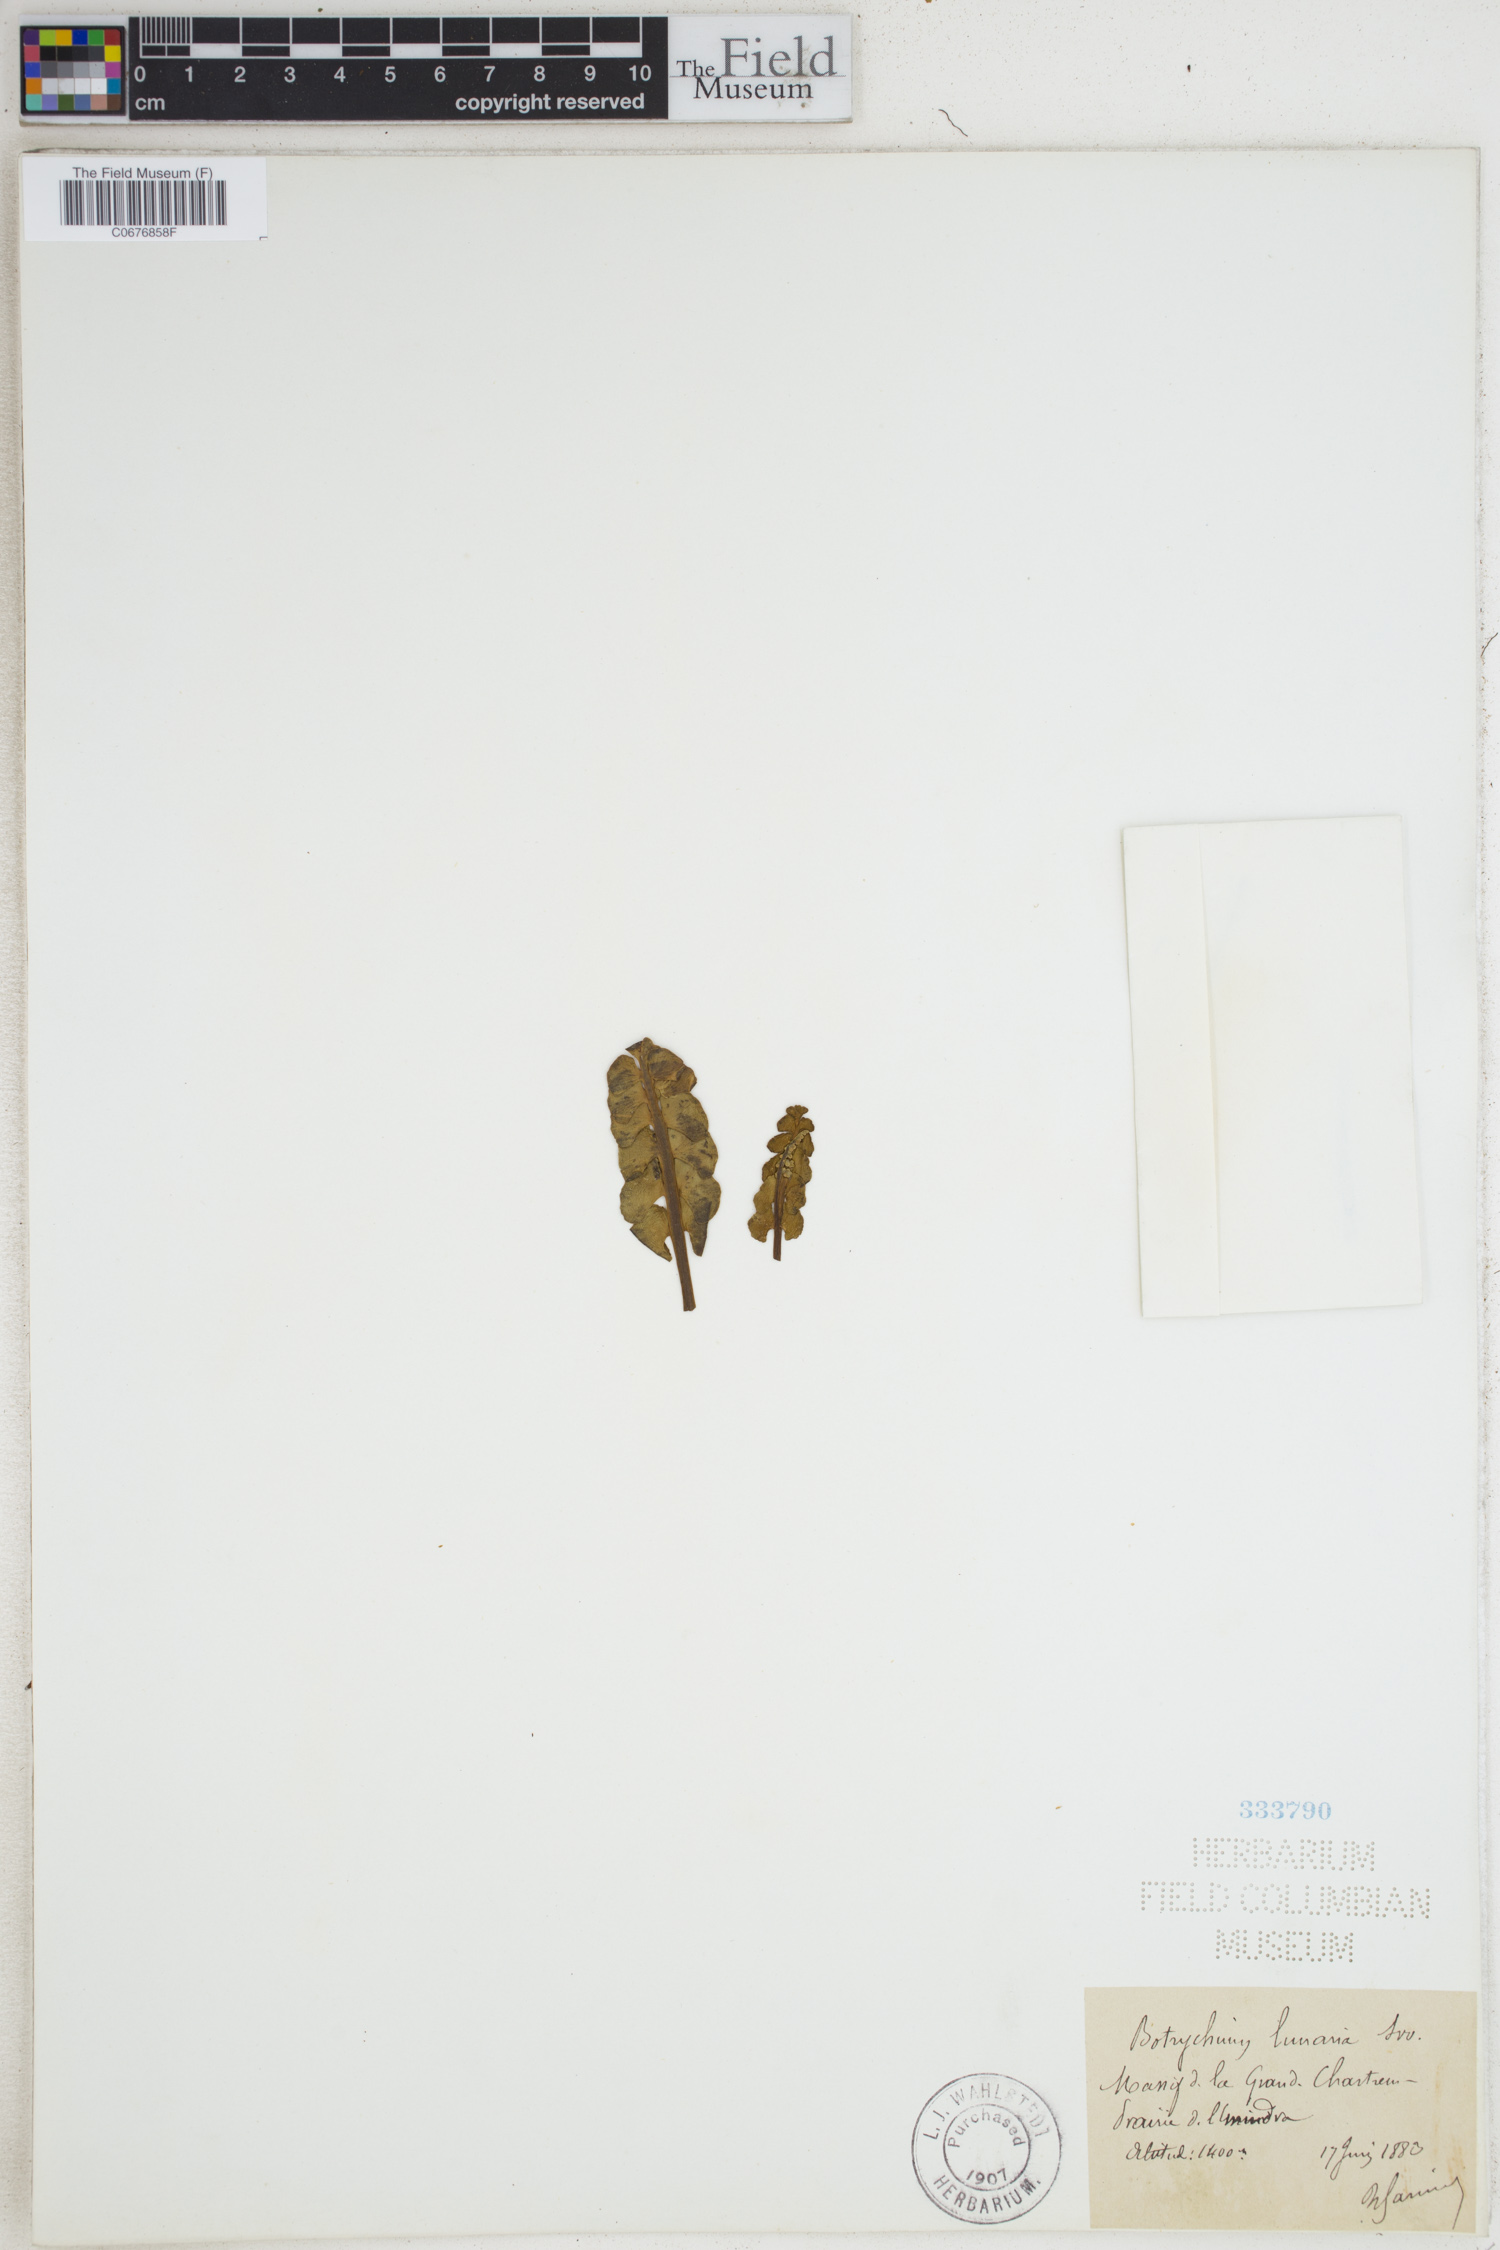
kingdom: Plantae
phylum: Tracheophyta
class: Polypodiopsida
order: Ophioglossales
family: Ophioglossaceae
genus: Botrychium
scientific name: Botrychium lunaria
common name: Moonwort
